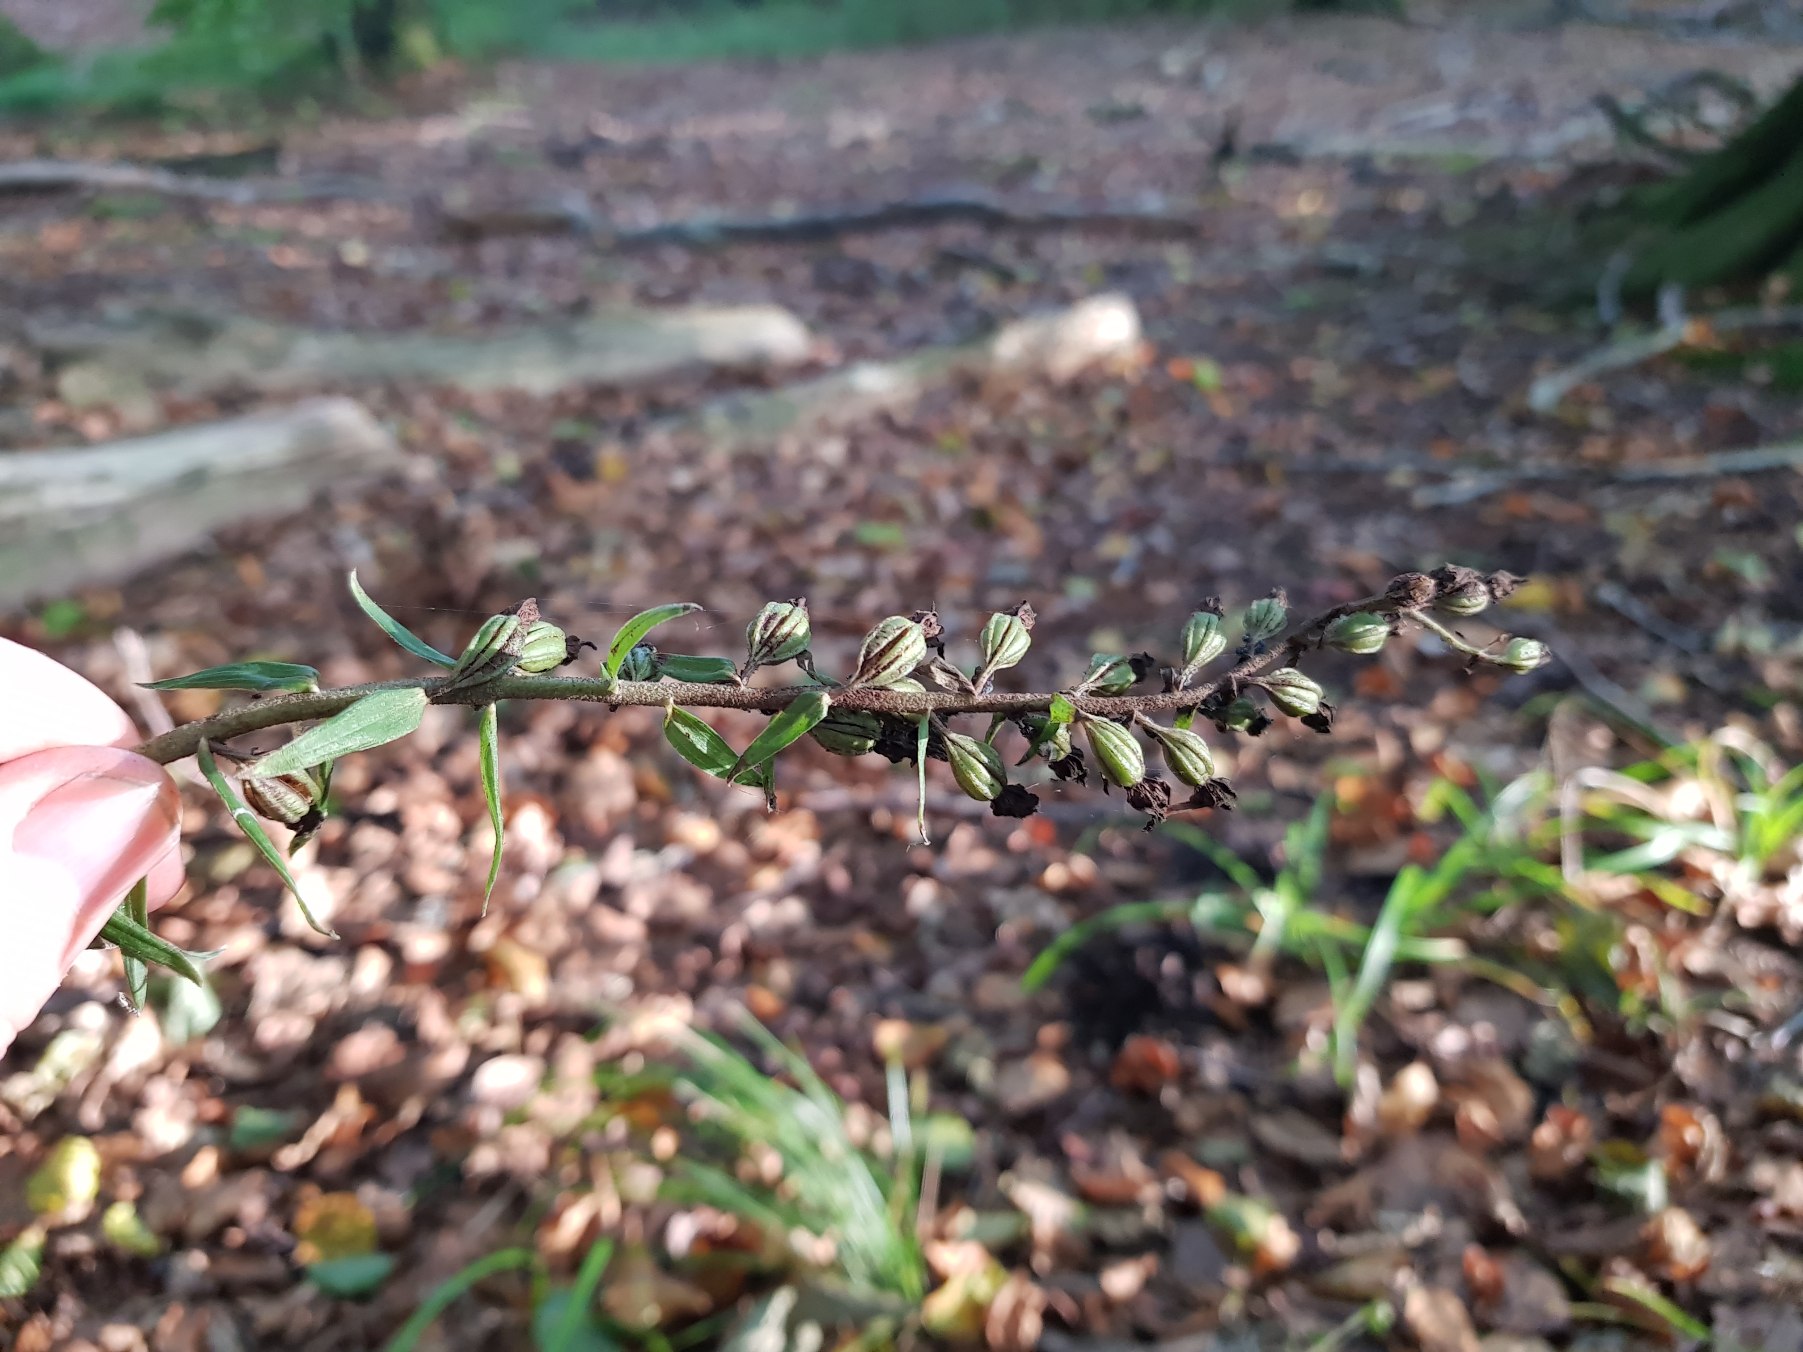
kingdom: Plantae
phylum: Tracheophyta
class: Liliopsida
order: Asparagales
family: Orchidaceae
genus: Epipactis
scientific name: Epipactis helleborine
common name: Skov-hullæbe
